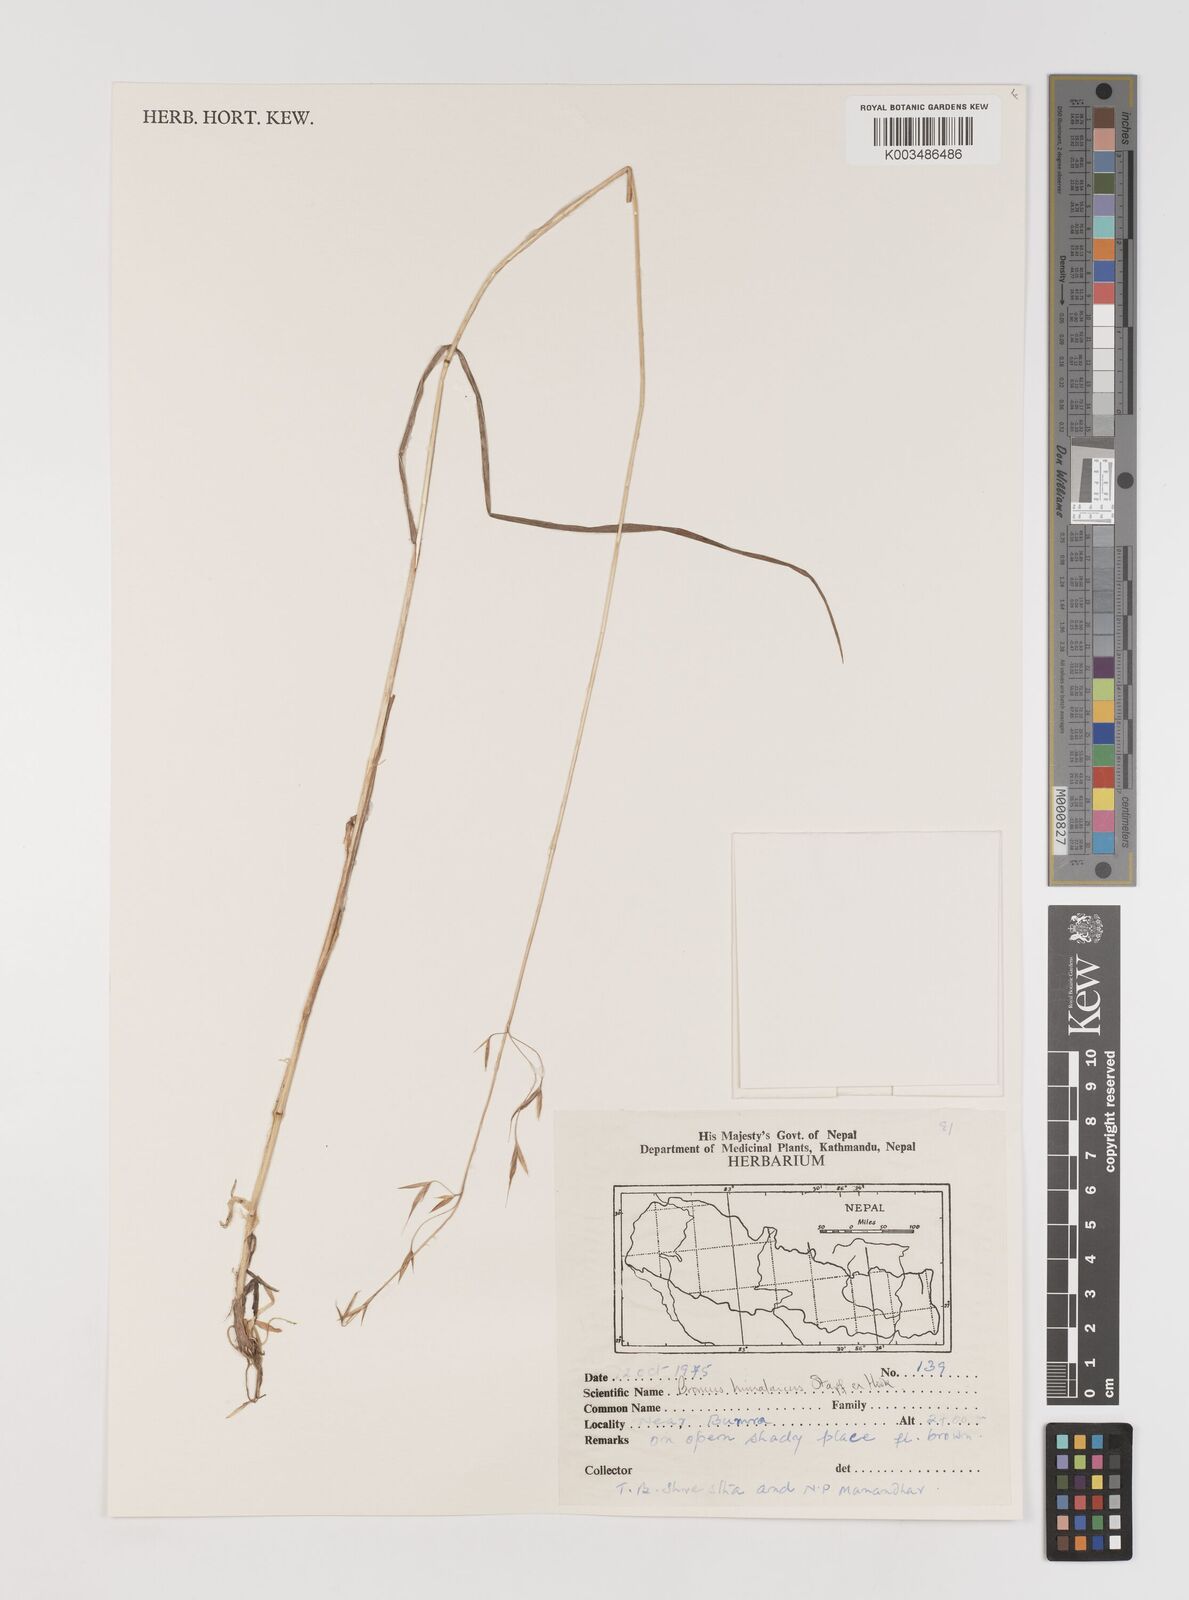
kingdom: Plantae
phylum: Tracheophyta
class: Liliopsida
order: Poales
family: Poaceae
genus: Bromus
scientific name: Bromus himalaicus
